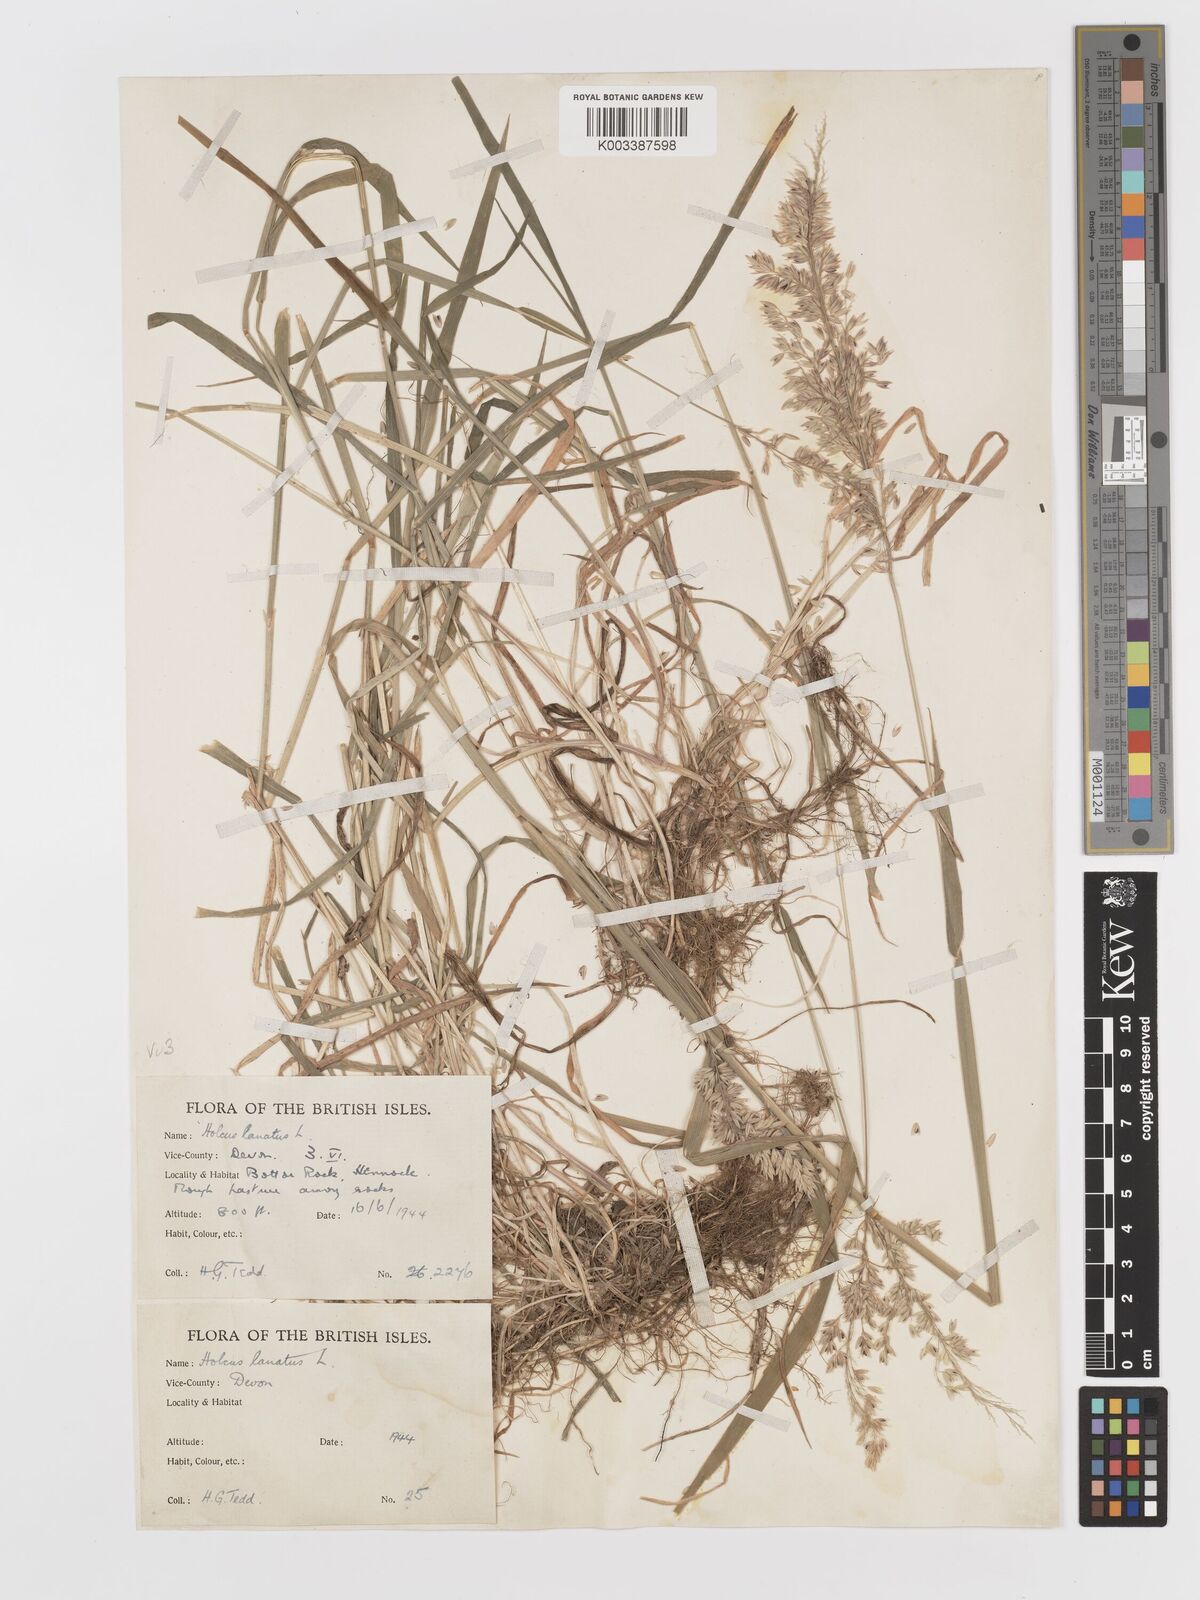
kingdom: Plantae
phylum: Tracheophyta
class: Liliopsida
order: Poales
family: Poaceae
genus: Holcus
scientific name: Holcus lanatus
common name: Yorkshire-fog
